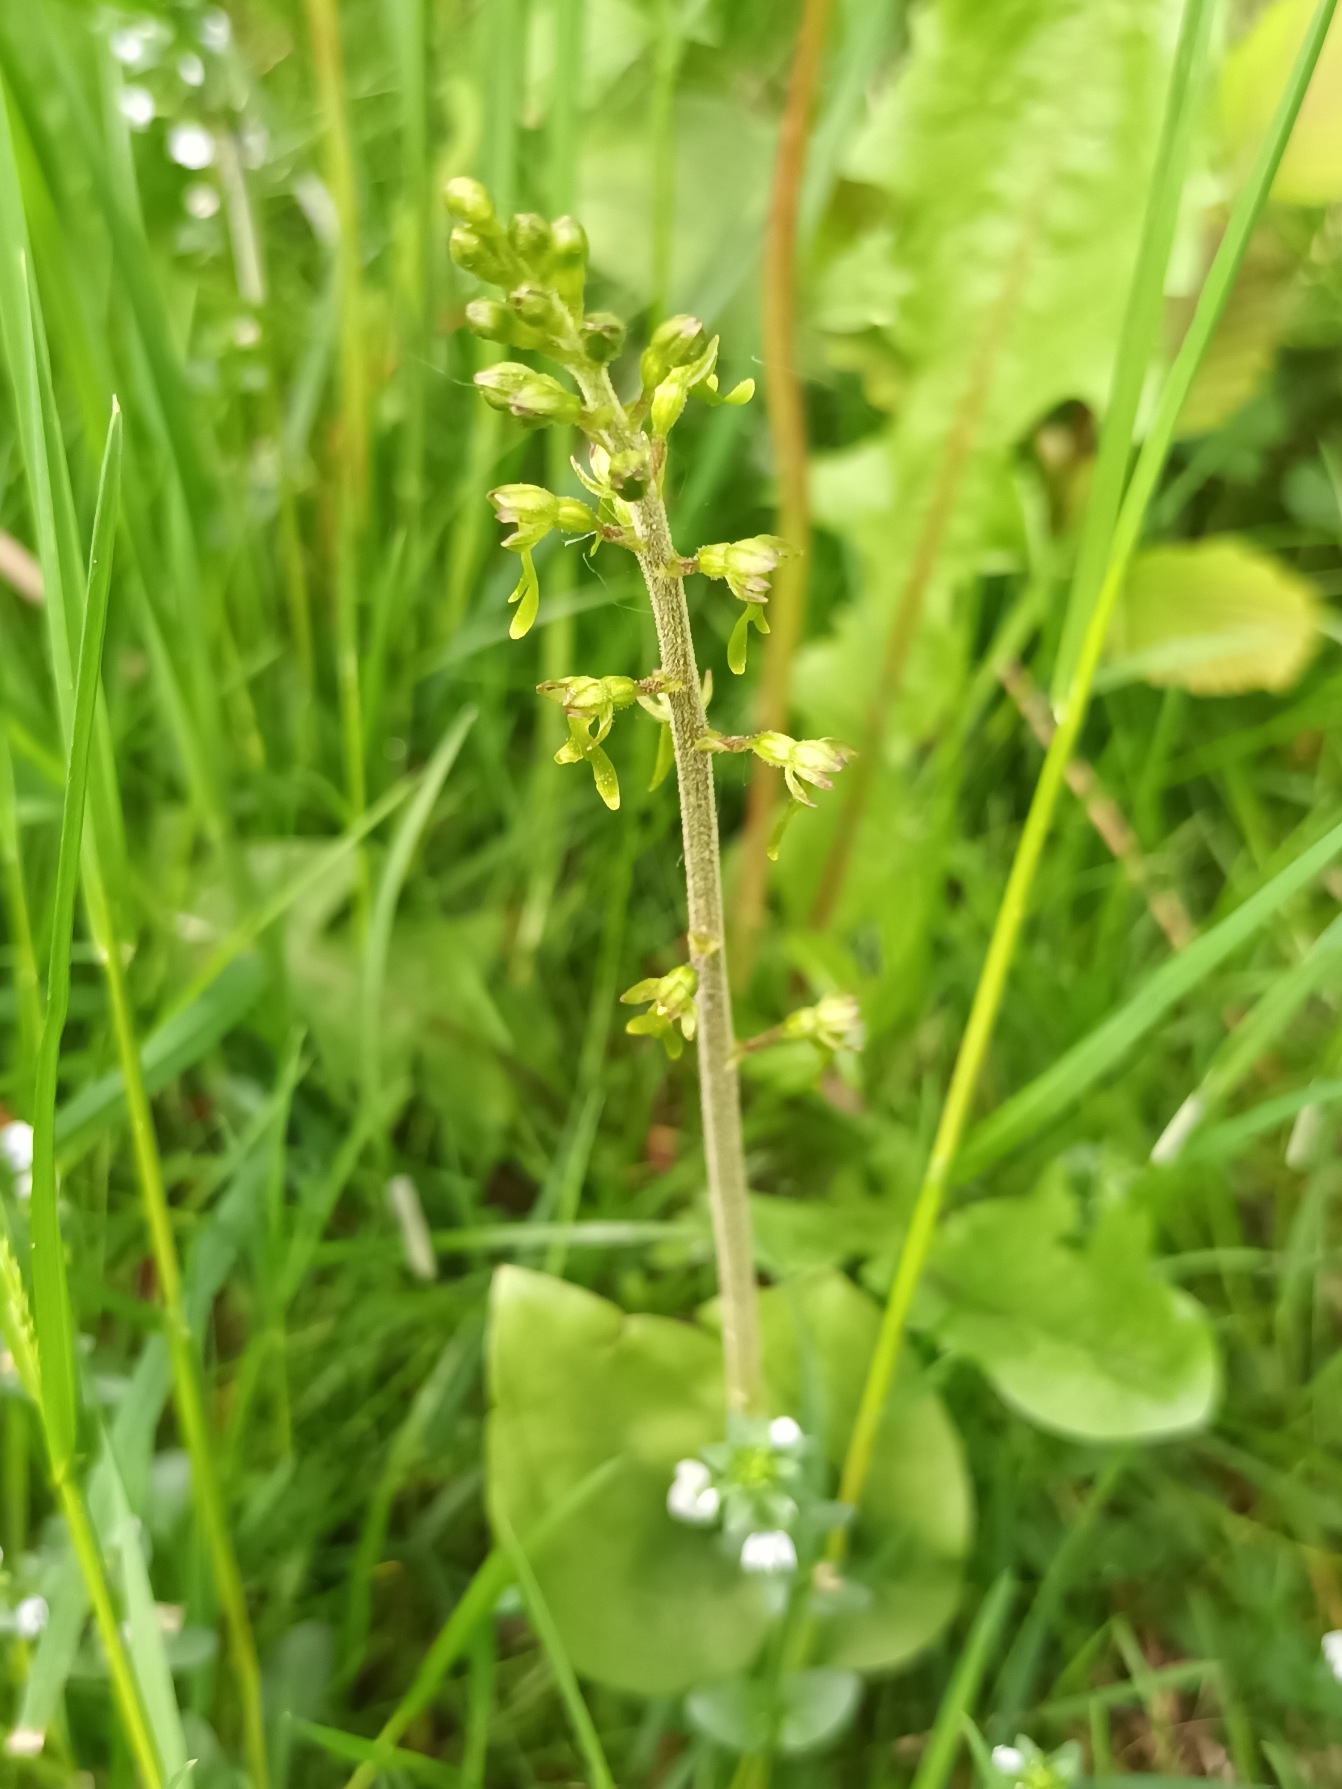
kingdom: Plantae
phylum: Tracheophyta
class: Liliopsida
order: Asparagales
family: Orchidaceae
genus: Neottia
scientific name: Neottia ovata
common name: Ægbladet fliglæbe
